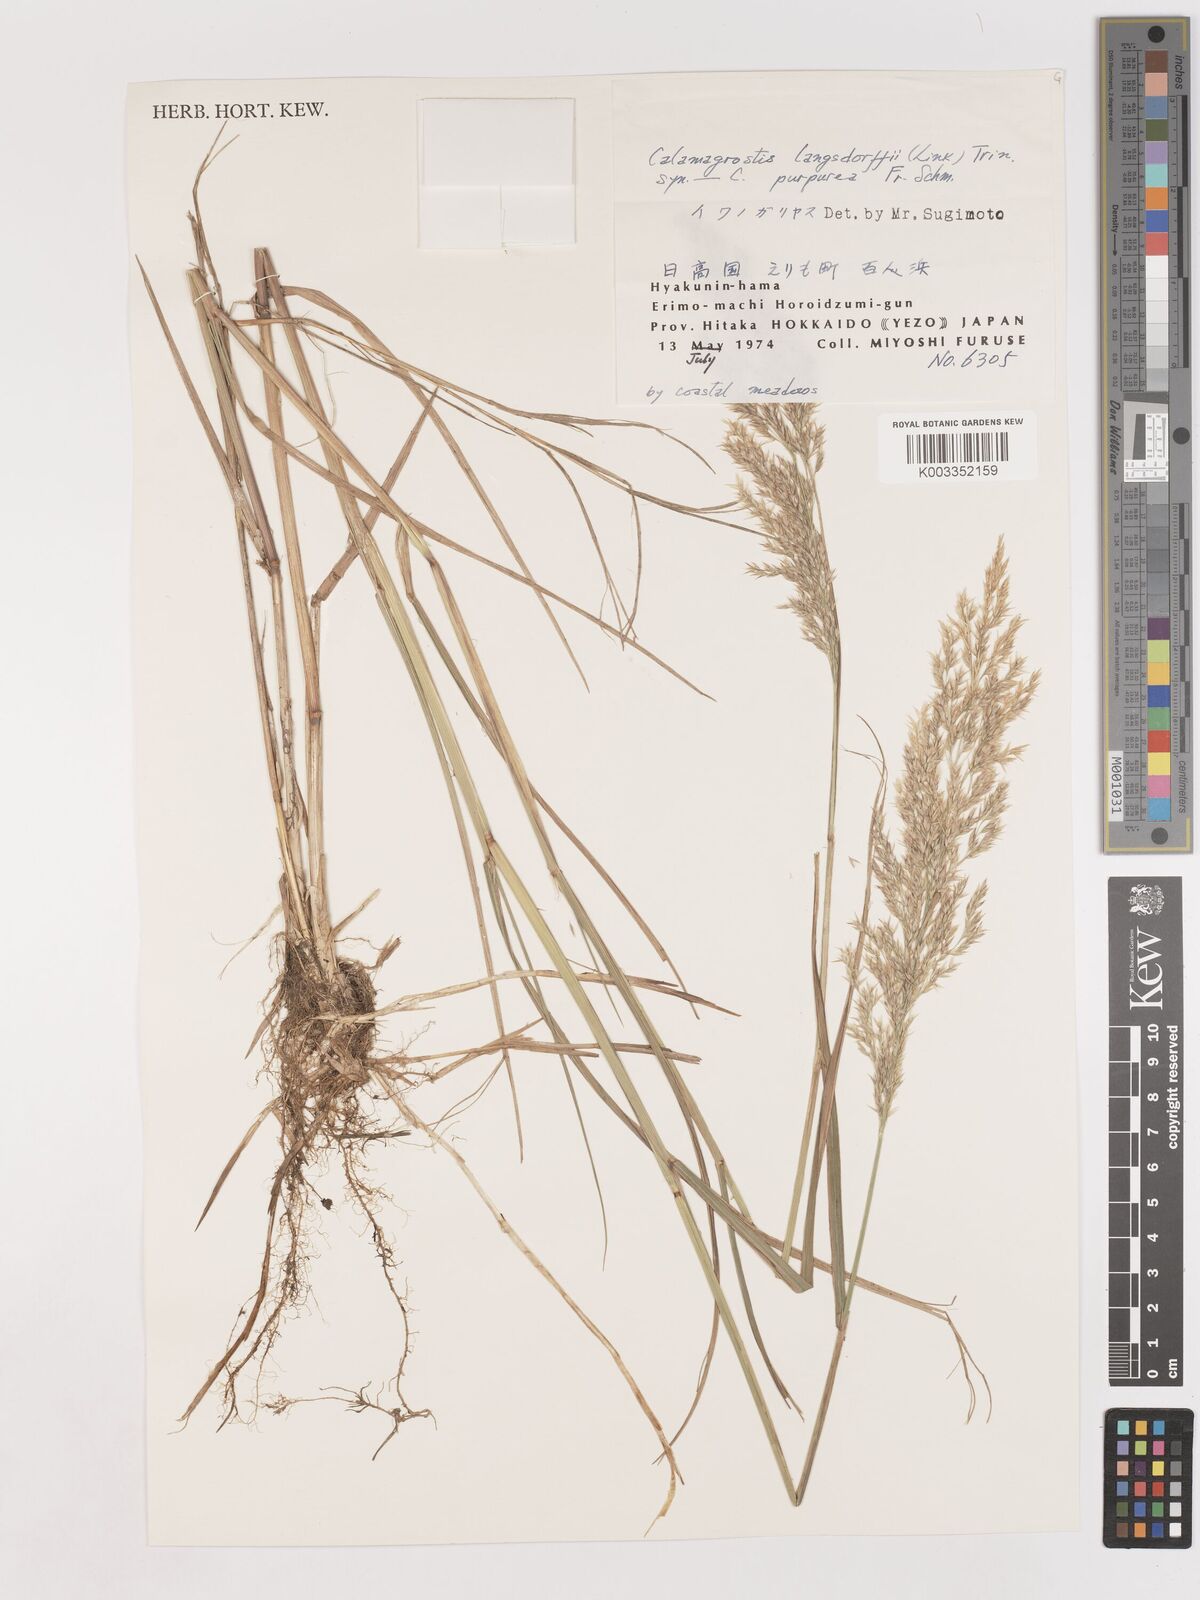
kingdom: Plantae
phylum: Tracheophyta
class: Liliopsida
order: Poales
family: Poaceae
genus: Calamagrostis
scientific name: Calamagrostis purpurea
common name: Scandinavian small-reed
